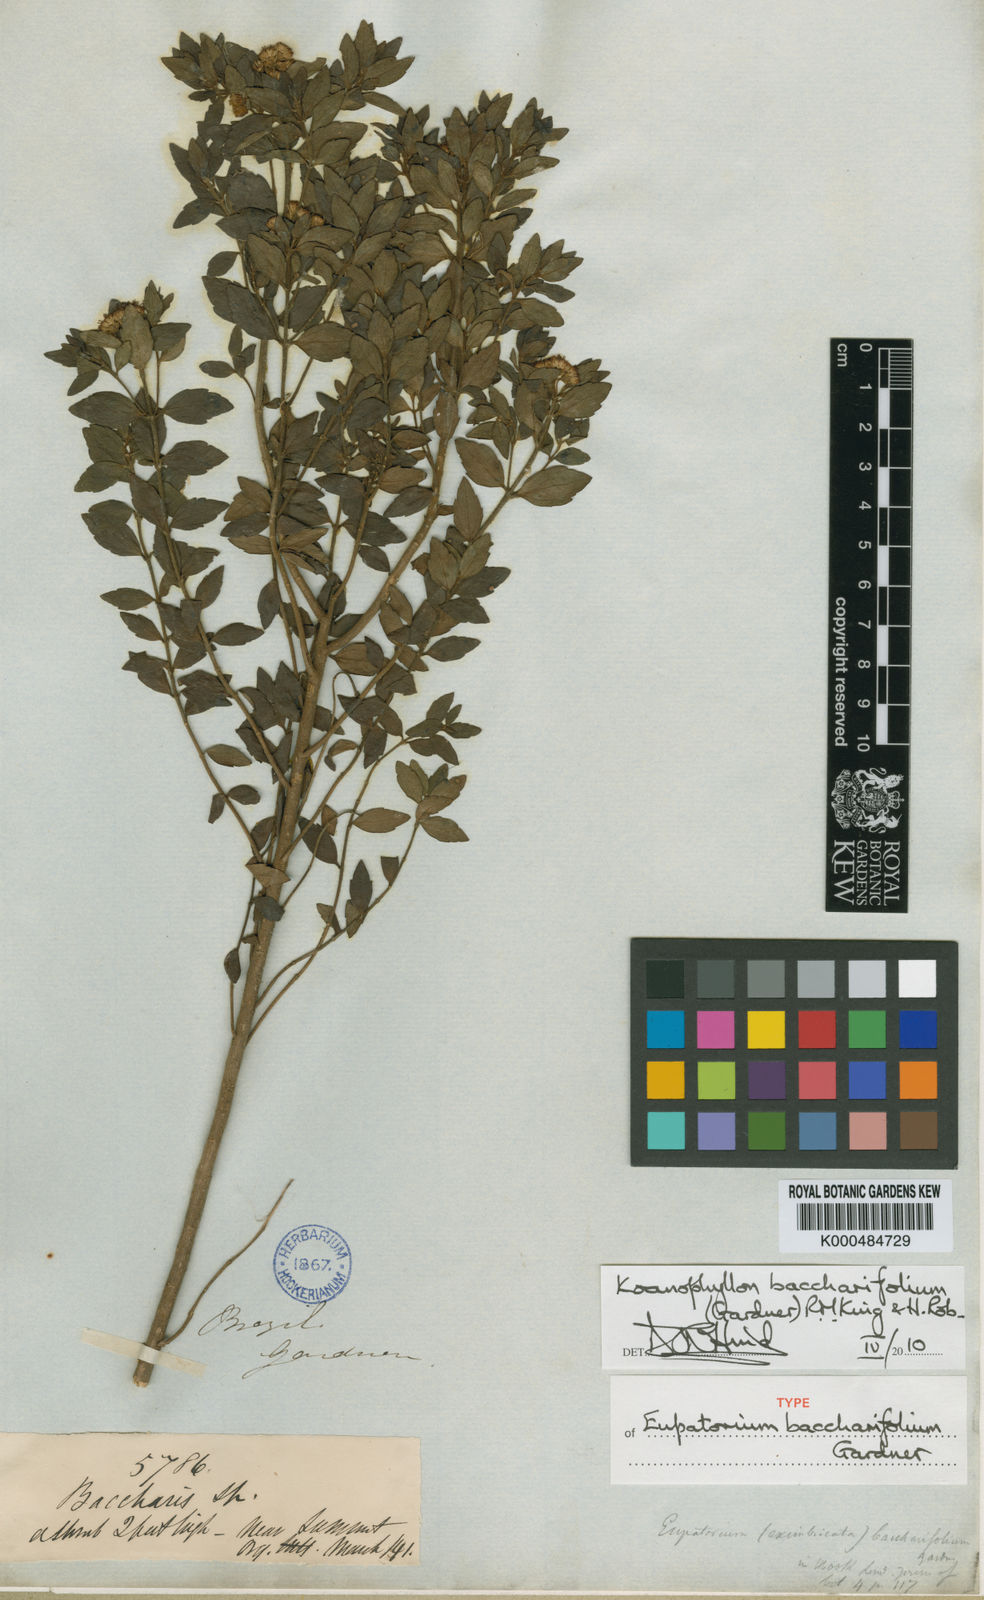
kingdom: Plantae
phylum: Tracheophyta
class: Magnoliopsida
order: Asterales
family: Asteraceae
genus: Koanophyllon
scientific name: Koanophyllon baccharifolium
